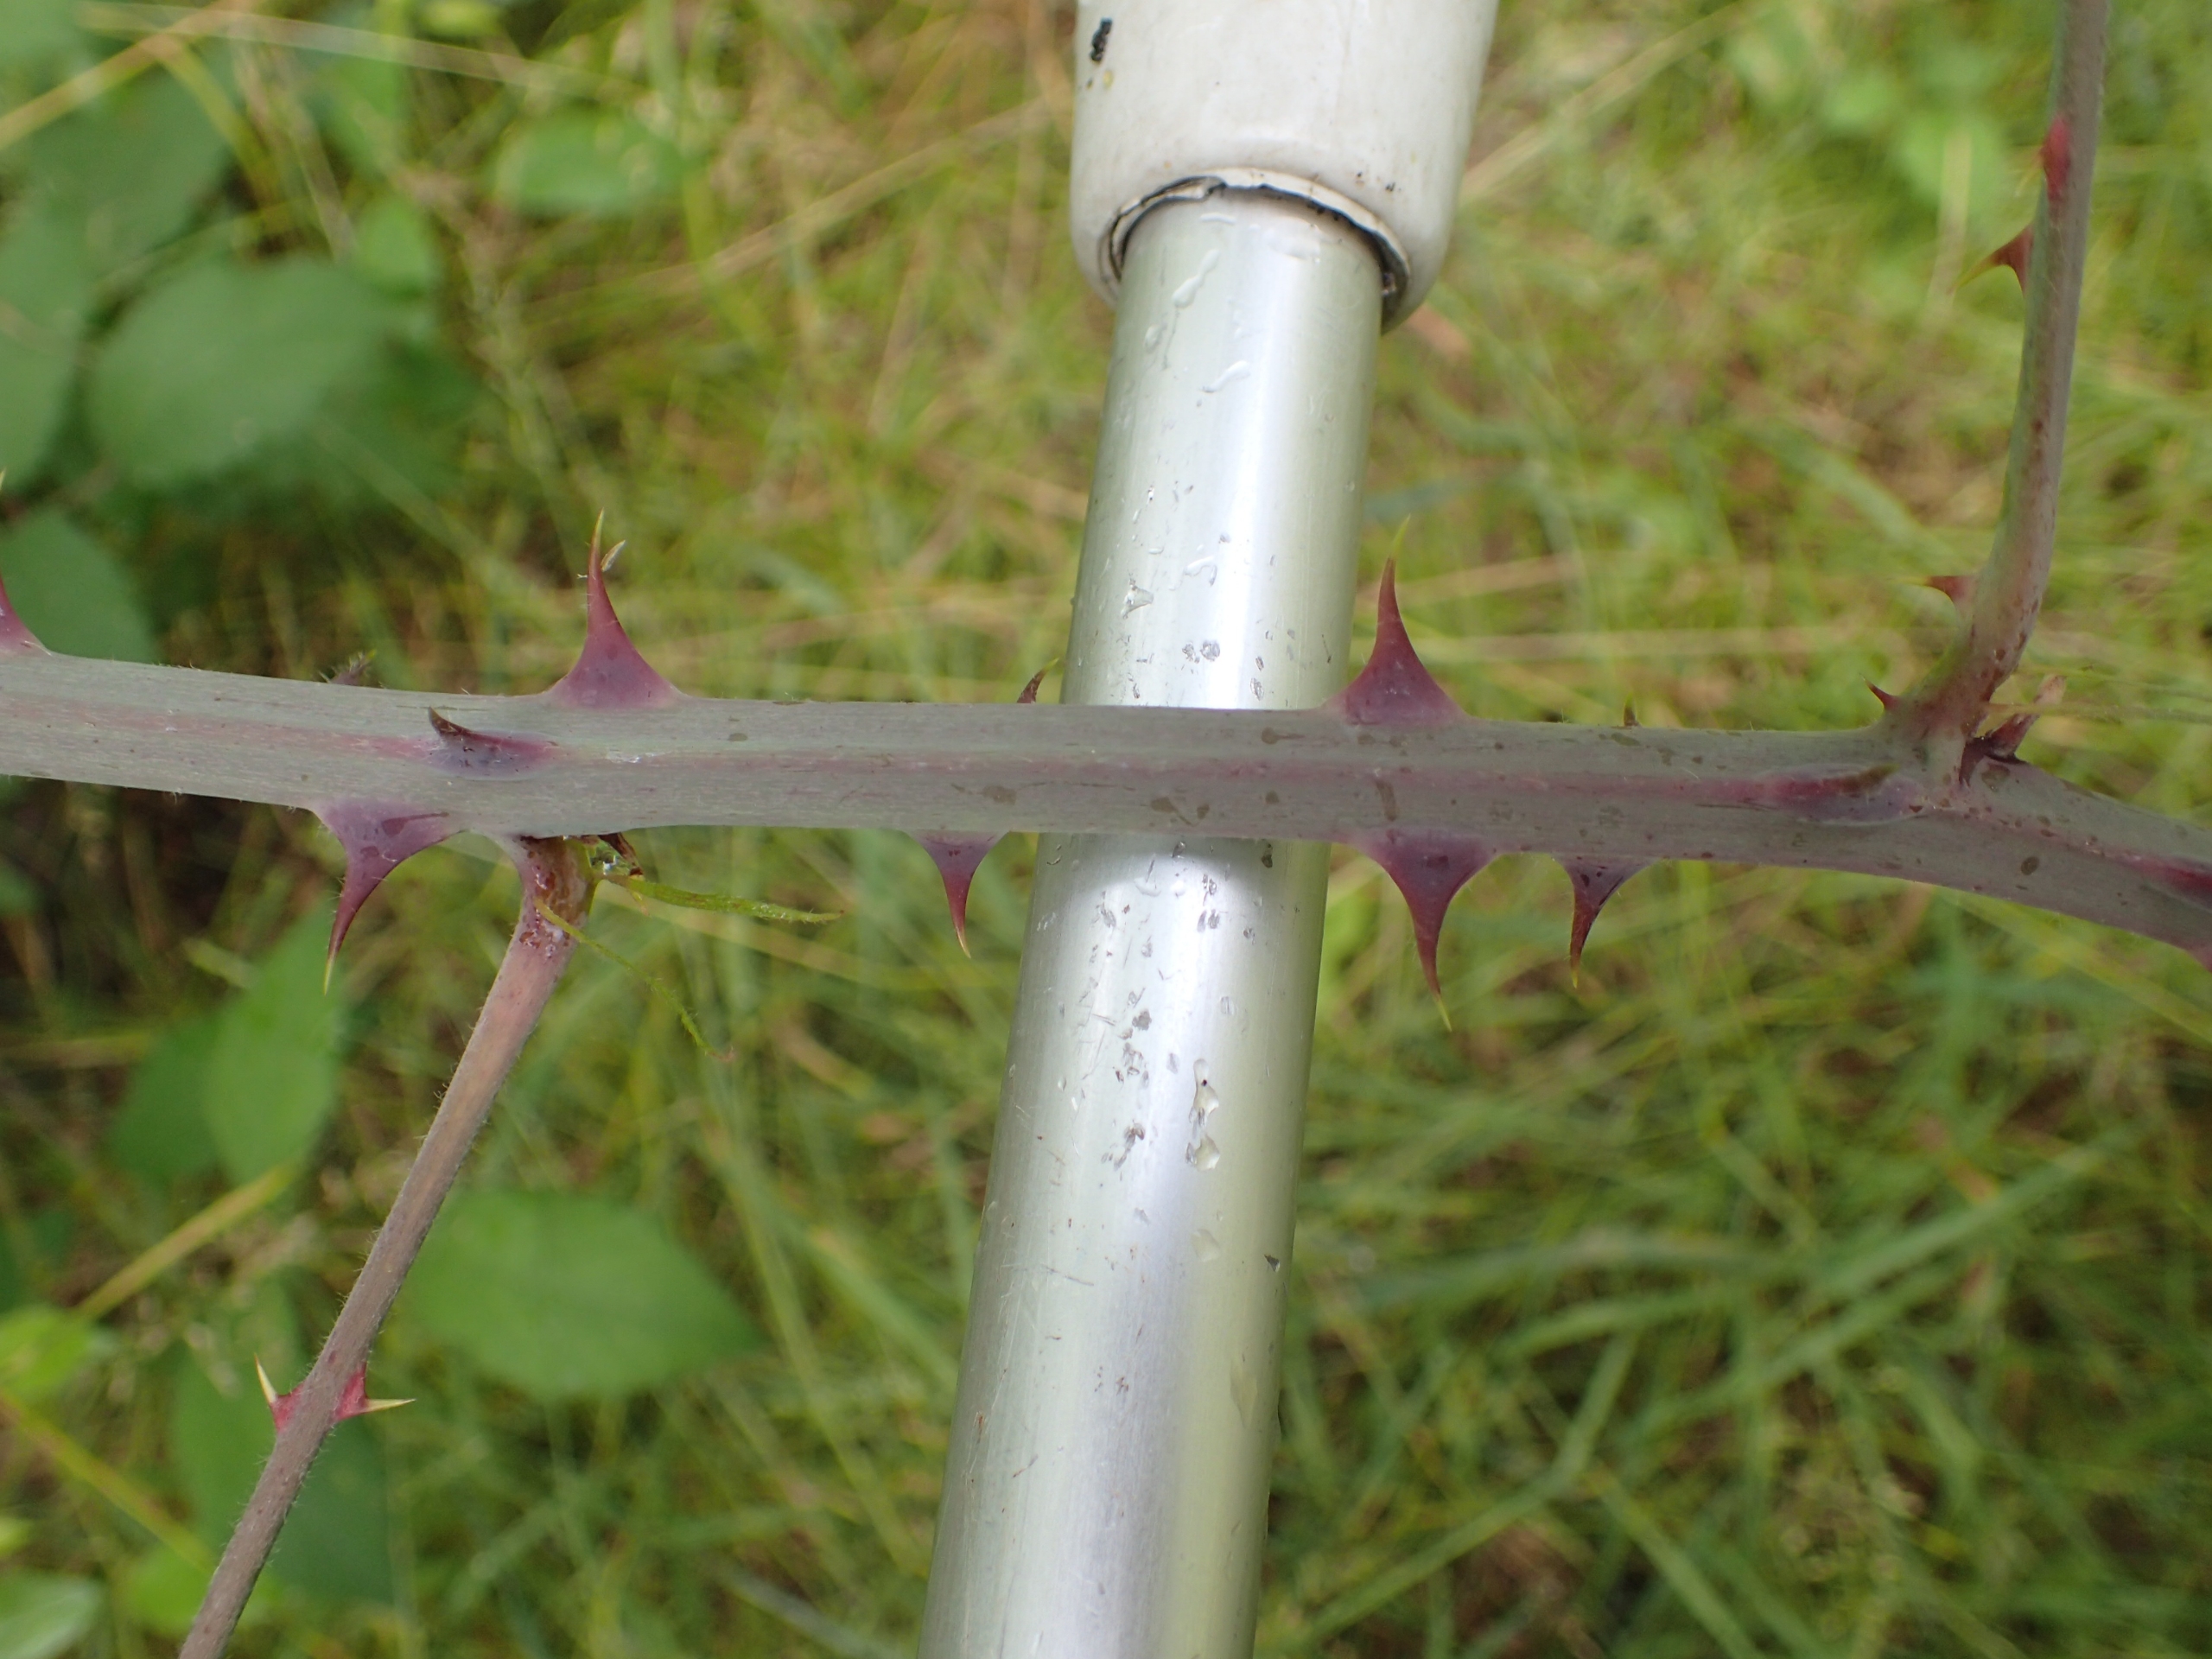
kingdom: Plantae
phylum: Tracheophyta
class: Magnoliopsida
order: Rosales
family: Rosaceae
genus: Rubus
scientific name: Rubus ulmifolius
